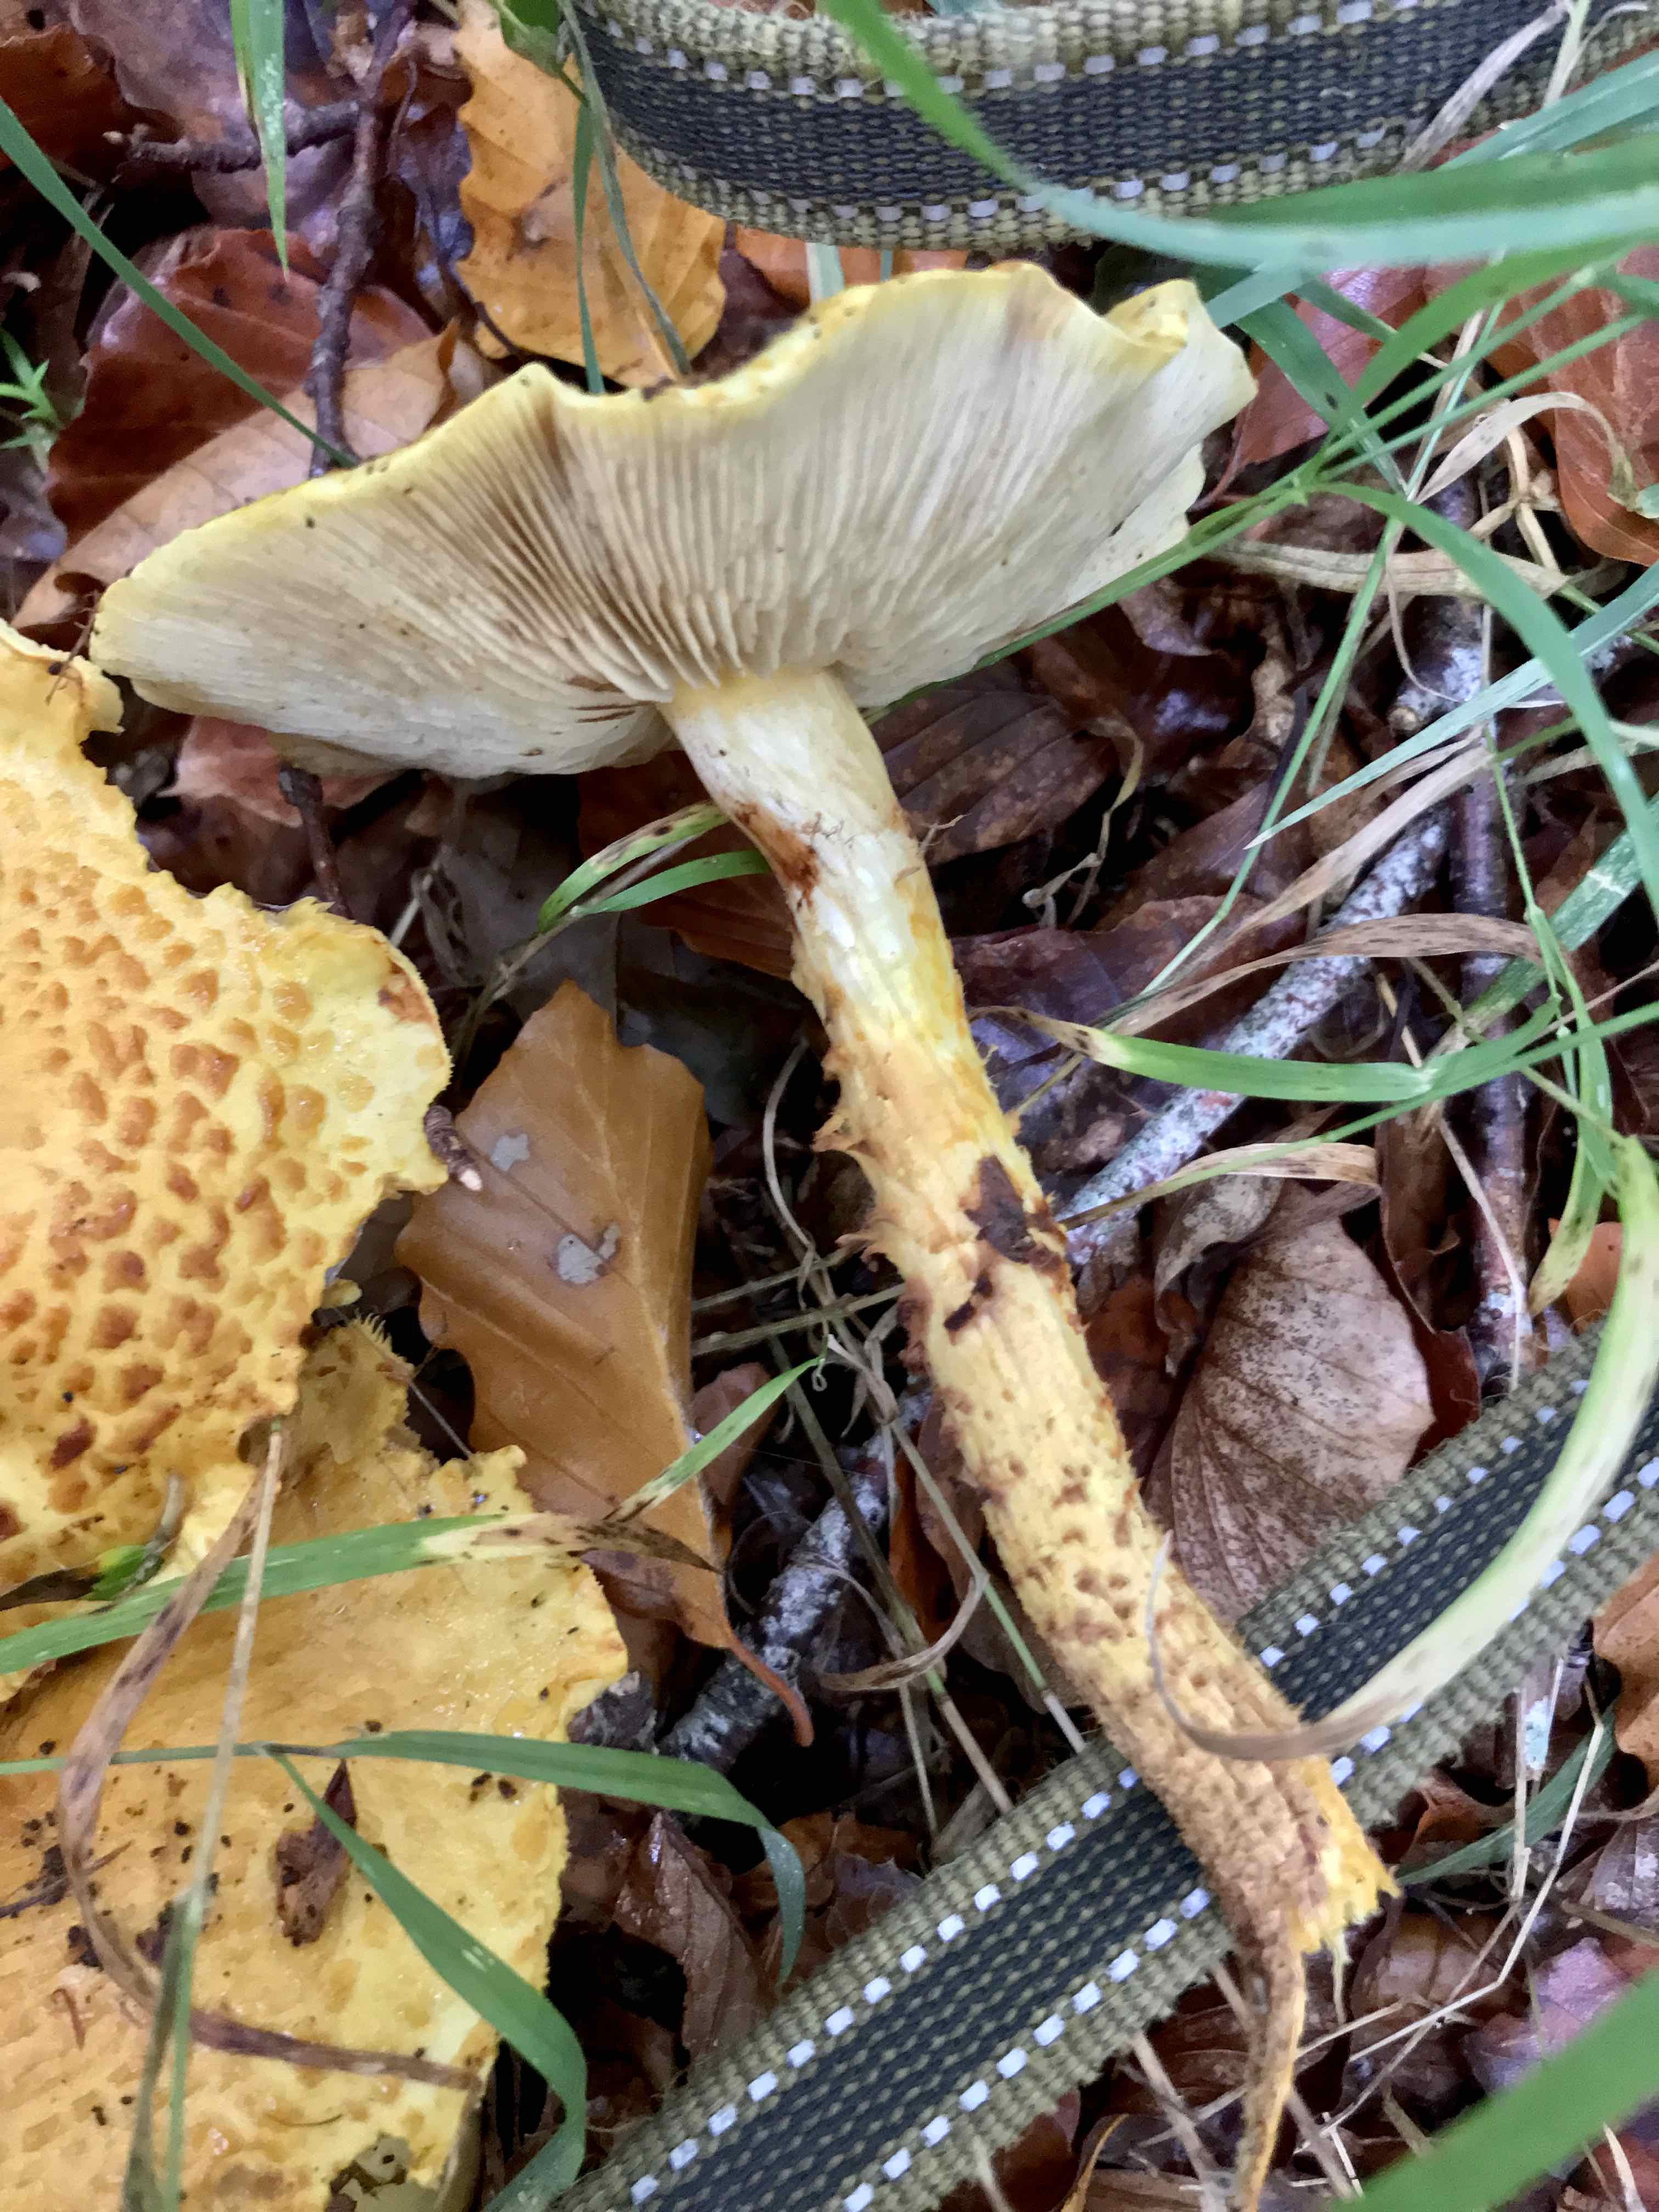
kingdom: Fungi
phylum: Basidiomycota
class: Agaricomycetes
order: Agaricales
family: Strophariaceae
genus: Pholiota
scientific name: Pholiota jahnii
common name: slimet skælhat
